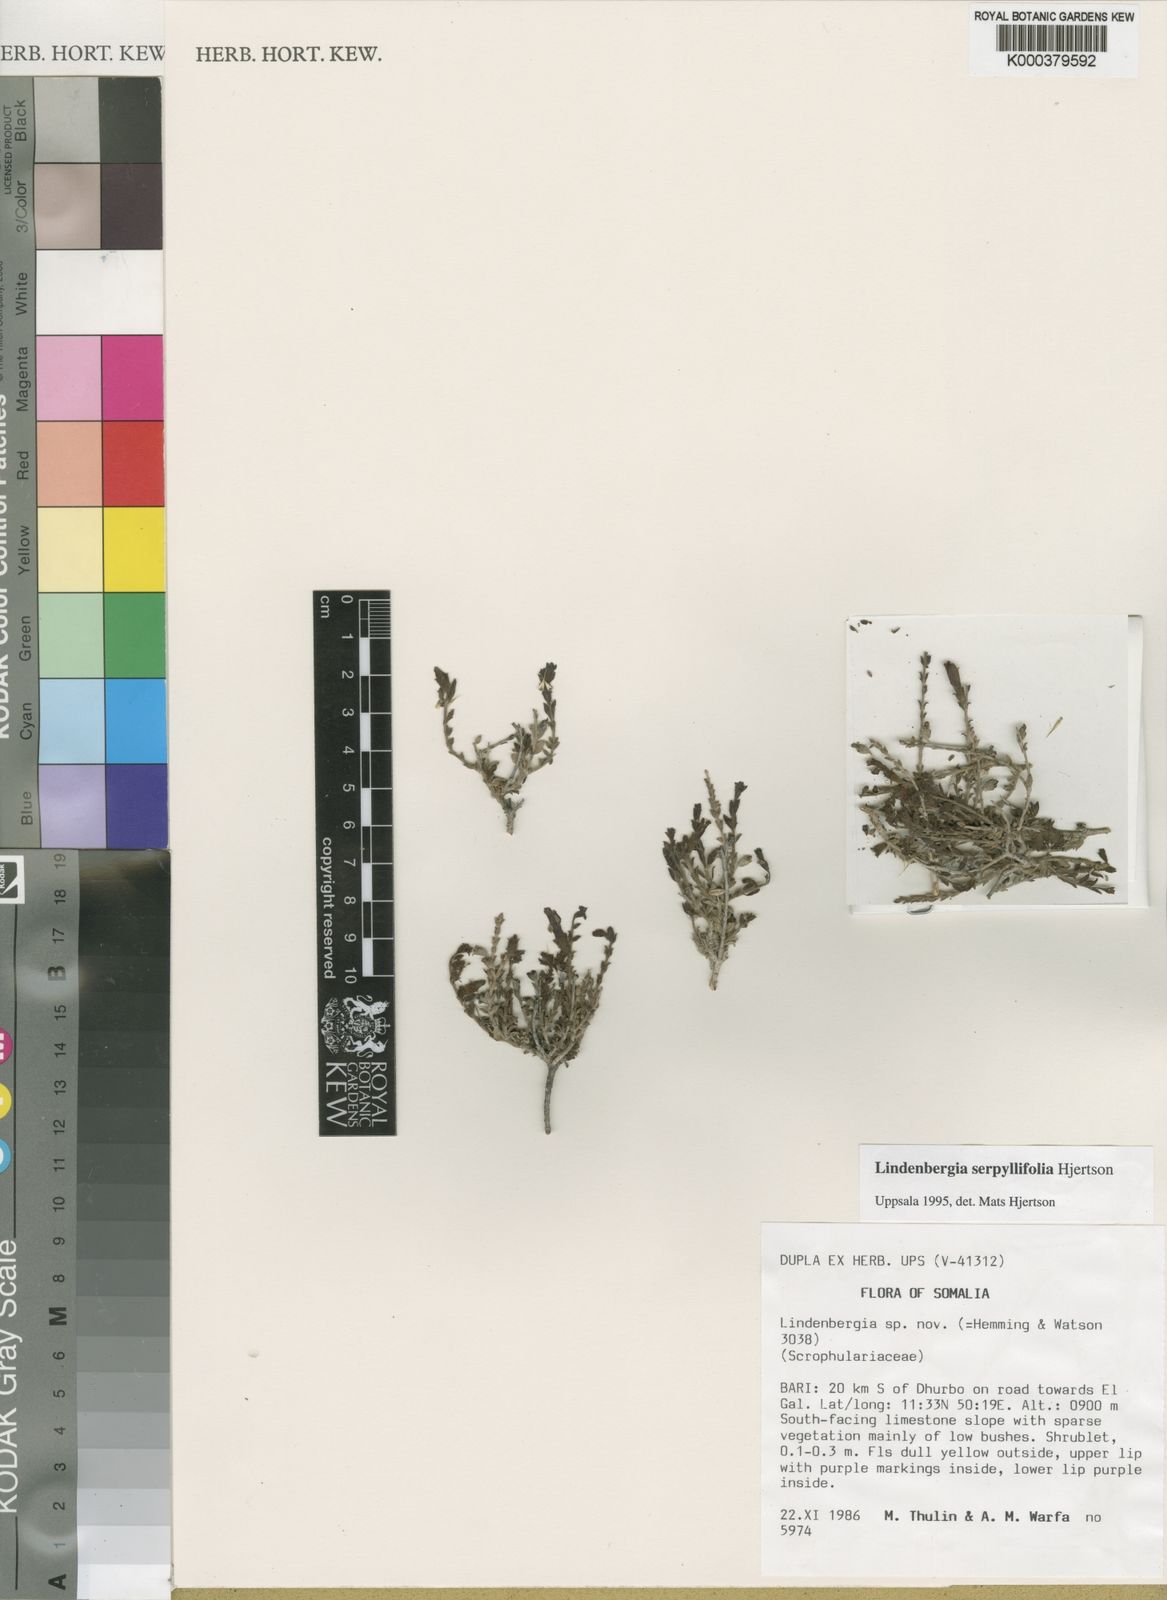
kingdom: Plantae
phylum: Tracheophyta
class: Magnoliopsida
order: Lamiales
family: Orobanchaceae
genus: Lindenbergia
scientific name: Lindenbergia serpyllifolia
